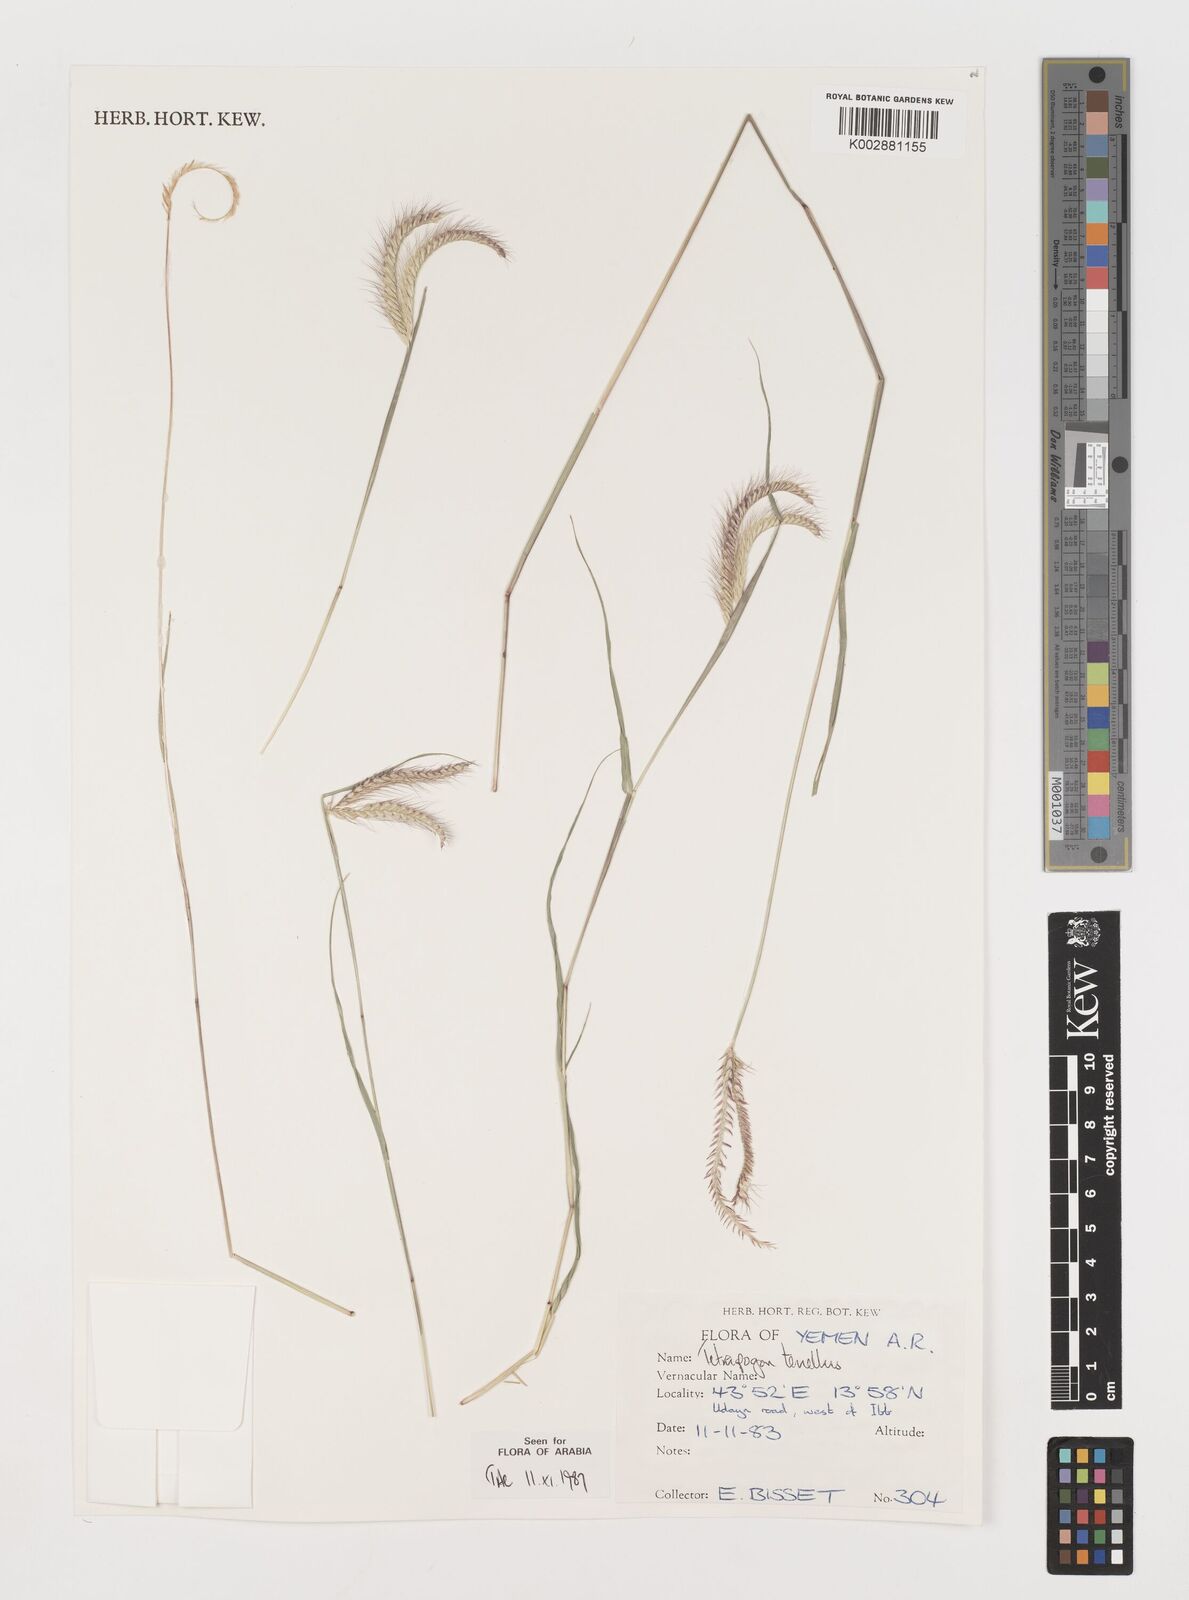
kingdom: Plantae
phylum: Tracheophyta
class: Liliopsida
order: Poales
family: Poaceae
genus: Tetrapogon
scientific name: Tetrapogon tenellus
